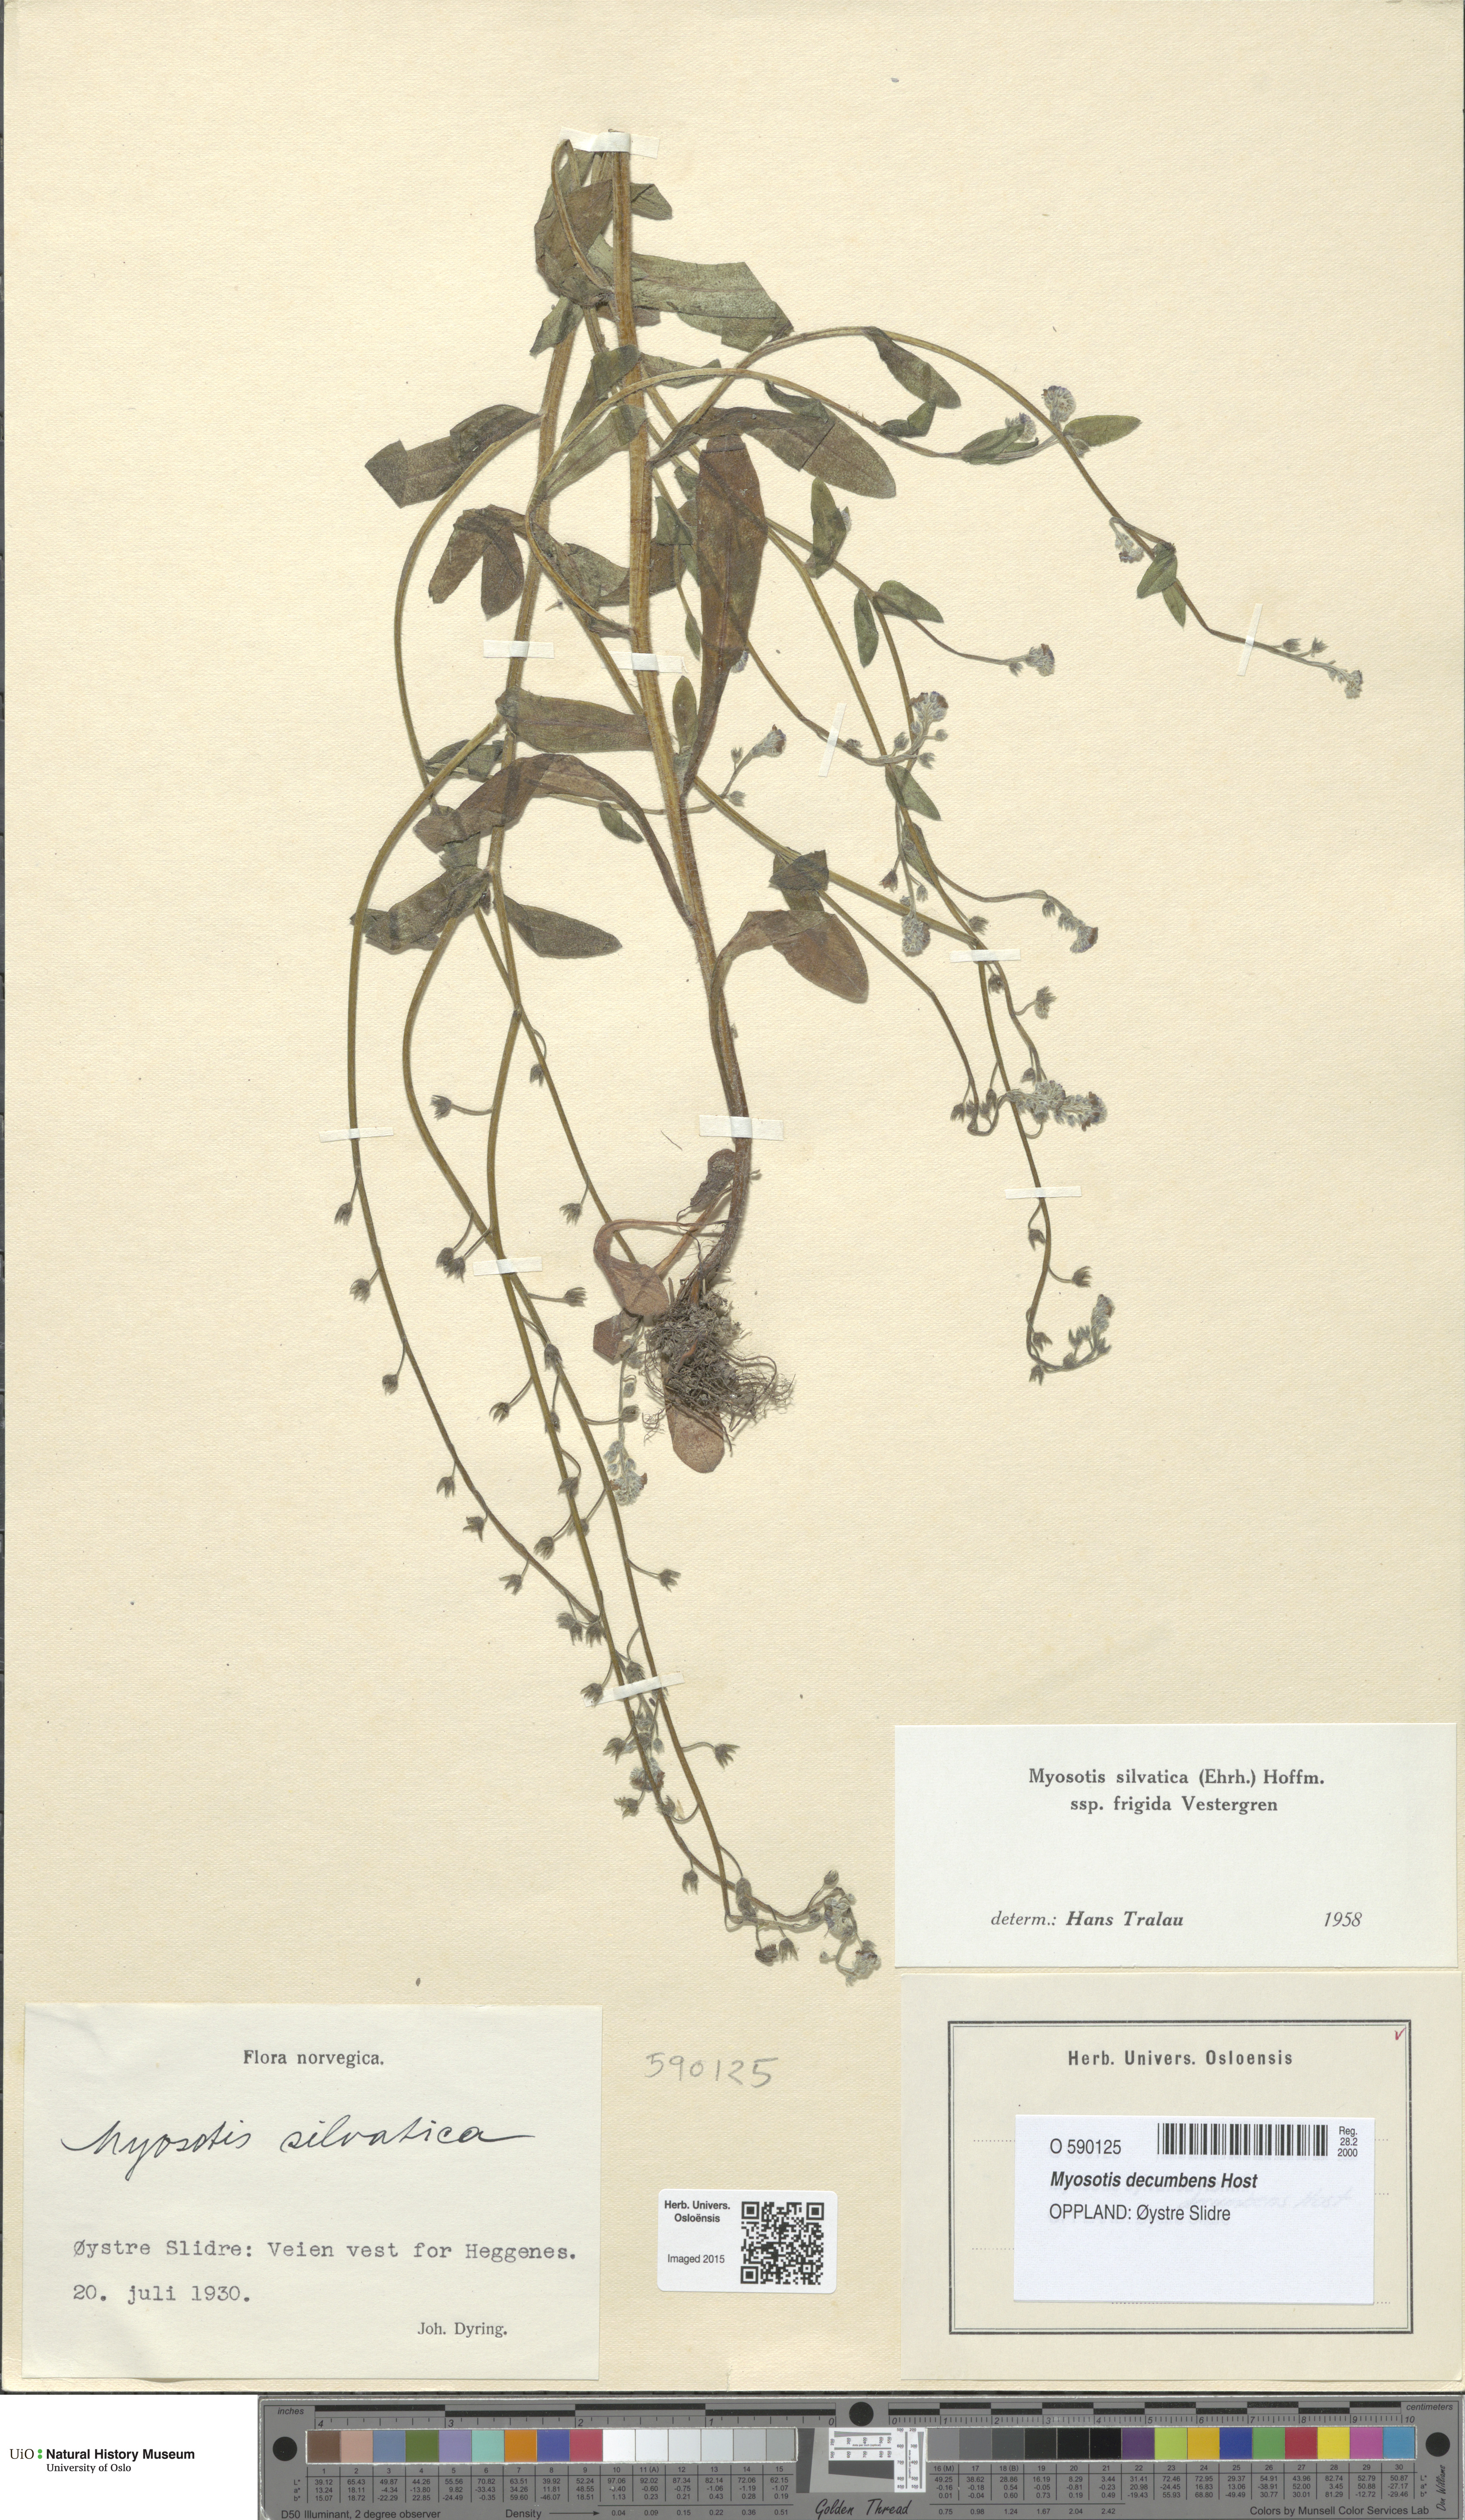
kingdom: Plantae
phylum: Tracheophyta
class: Magnoliopsida
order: Boraginales
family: Boraginaceae
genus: Myosotis
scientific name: Myosotis decumbens
